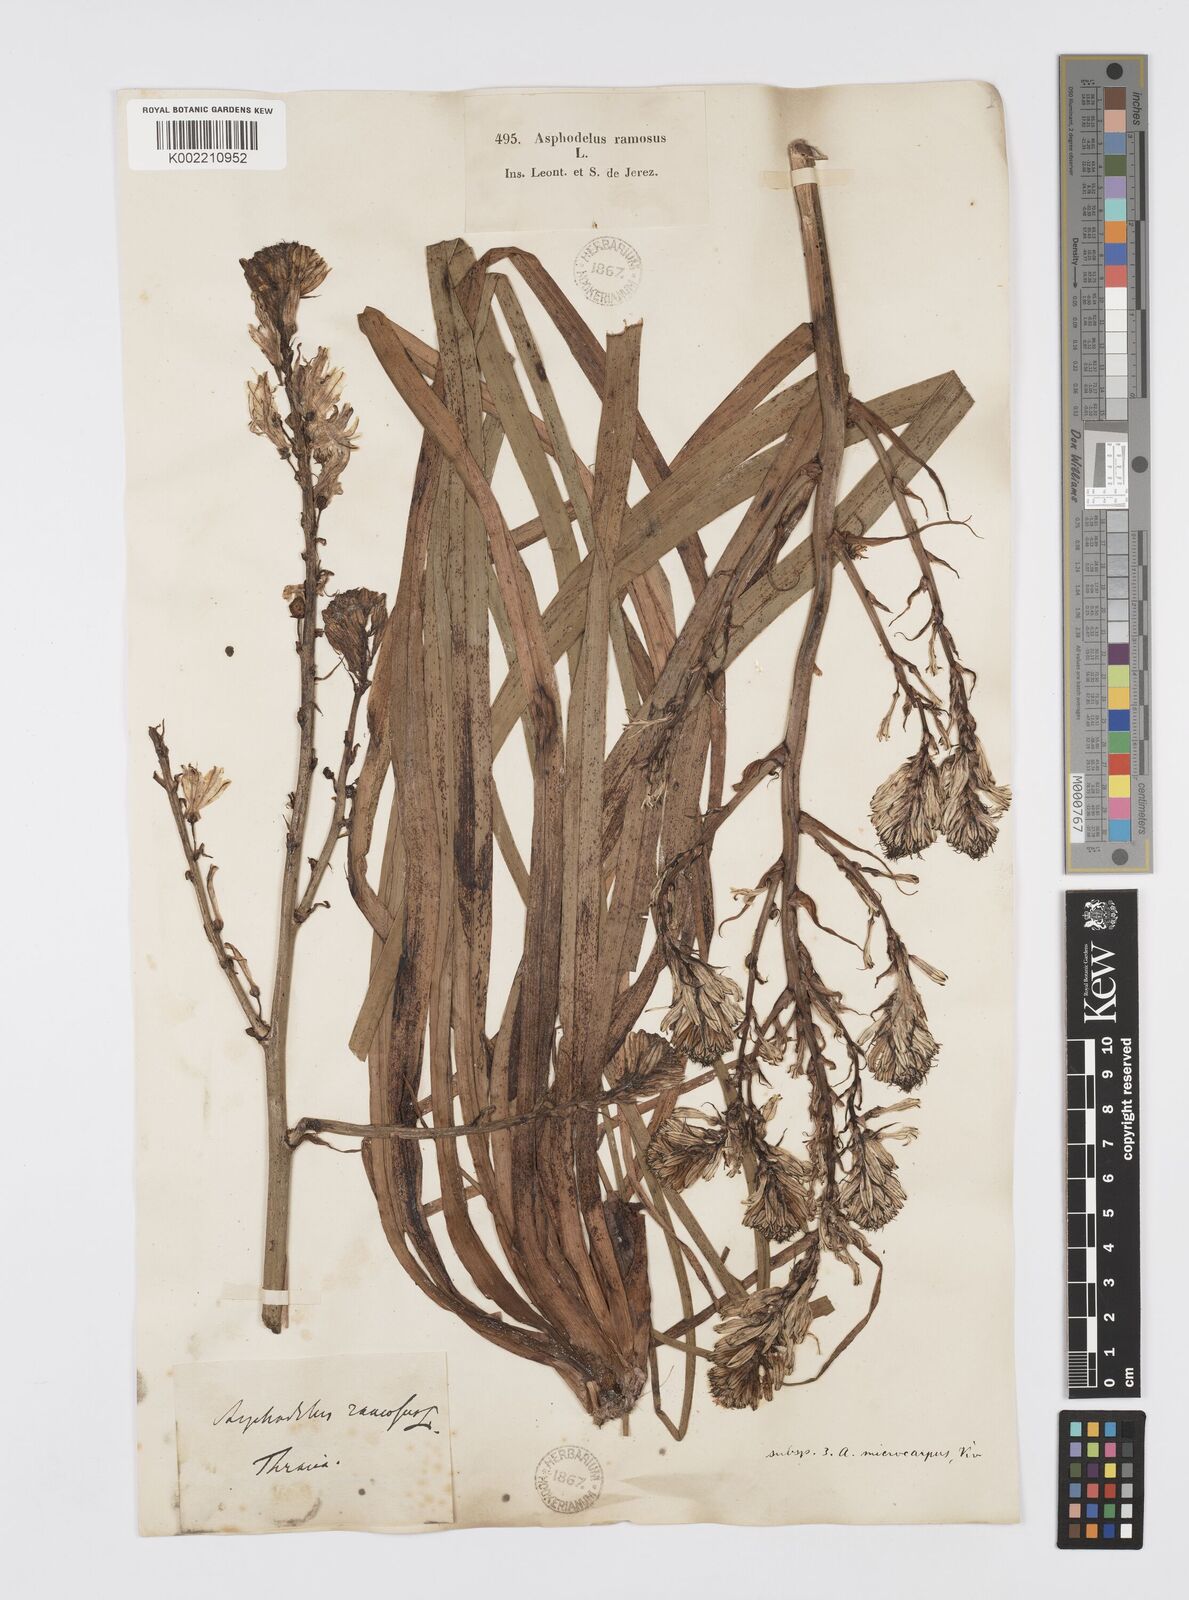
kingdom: Plantae
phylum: Tracheophyta
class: Liliopsida
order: Asparagales
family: Asphodelaceae
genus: Asphodelus
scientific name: Asphodelus ramosus
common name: Silverrod
